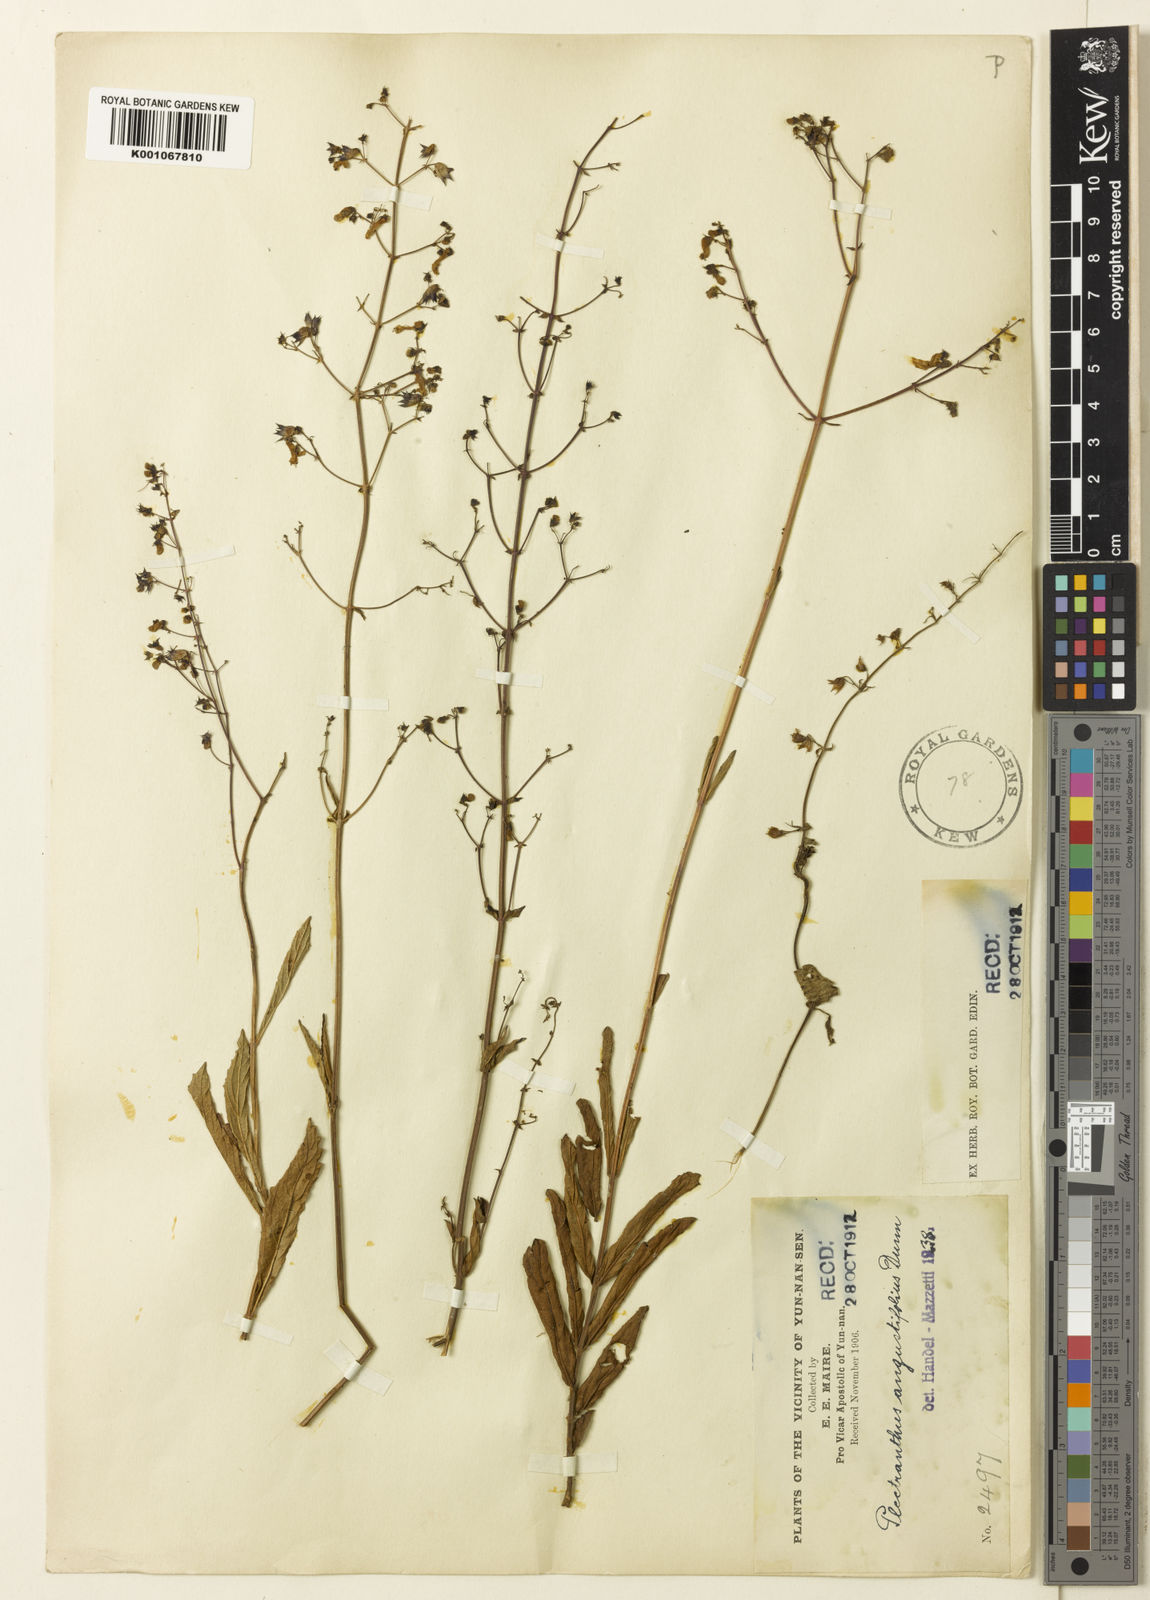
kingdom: Plantae
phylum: Tracheophyta
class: Magnoliopsida
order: Lamiales
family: Lamiaceae
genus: Isodon
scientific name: Isodon
